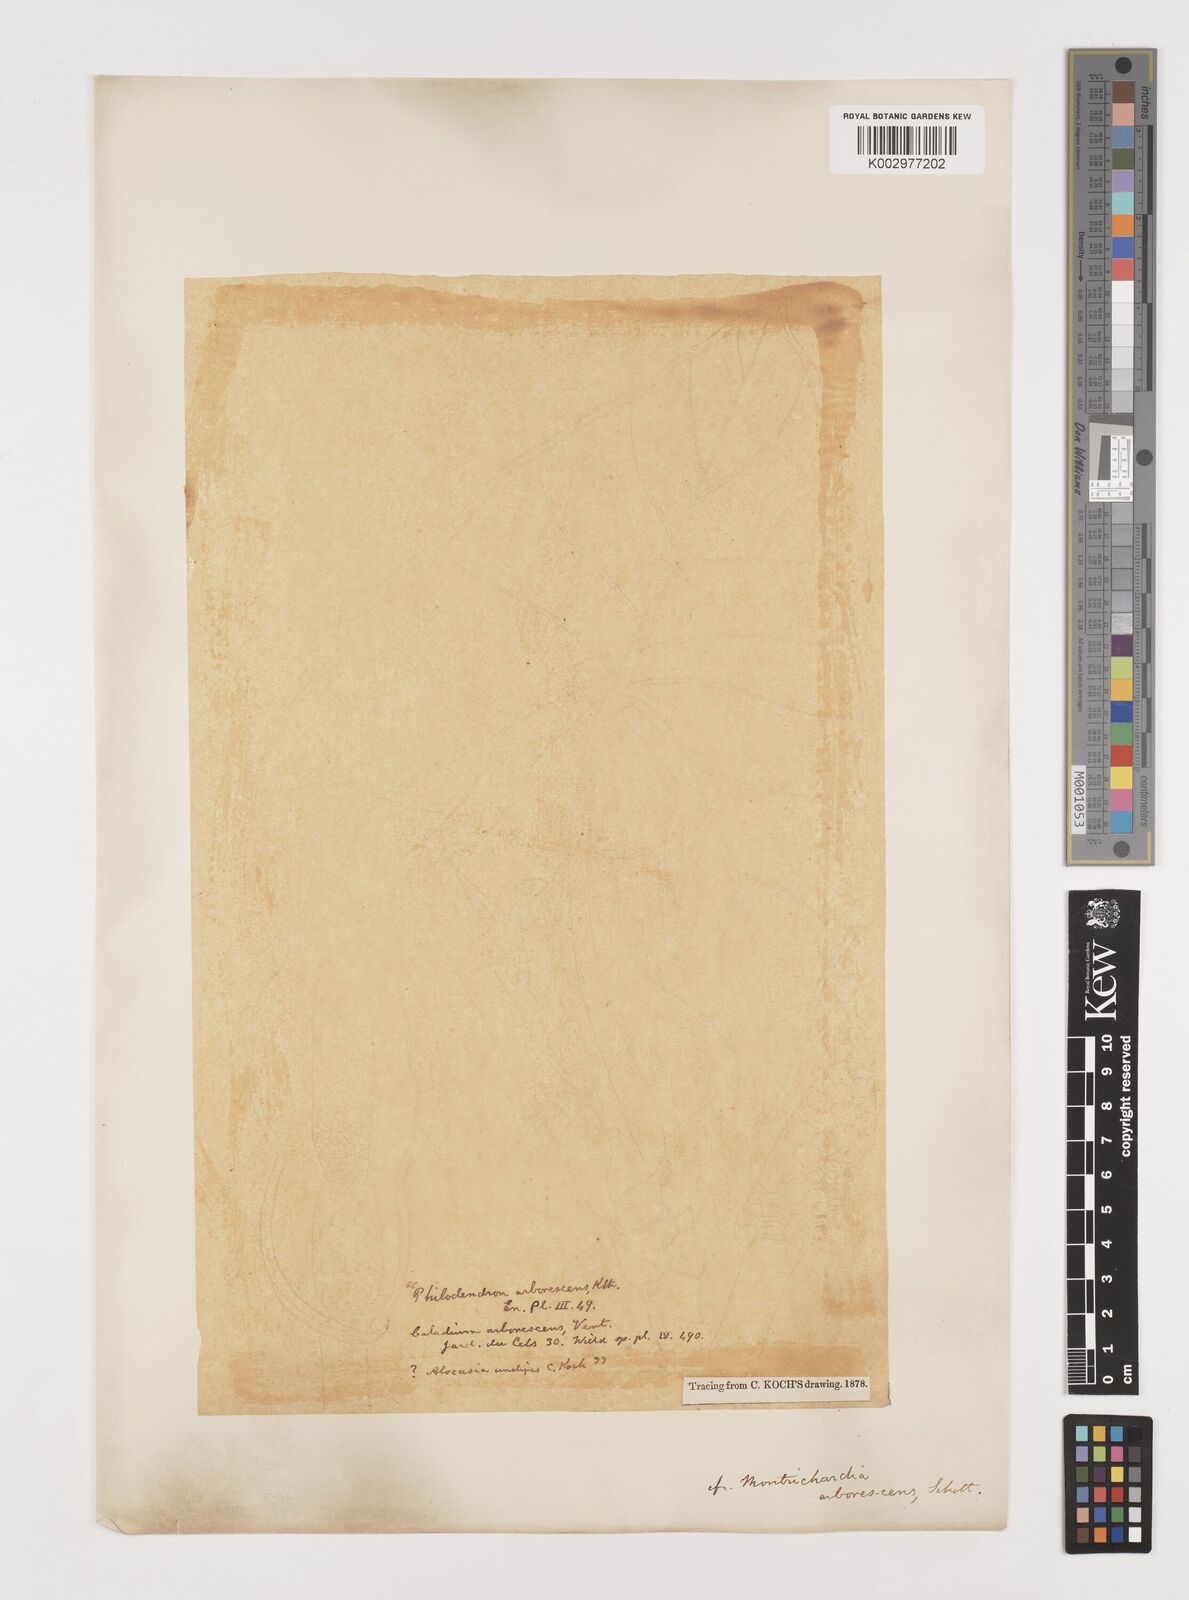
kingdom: Plantae
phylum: Tracheophyta
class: Liliopsida
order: Alismatales
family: Araceae
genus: Montrichardia
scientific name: Montrichardia arborescens
